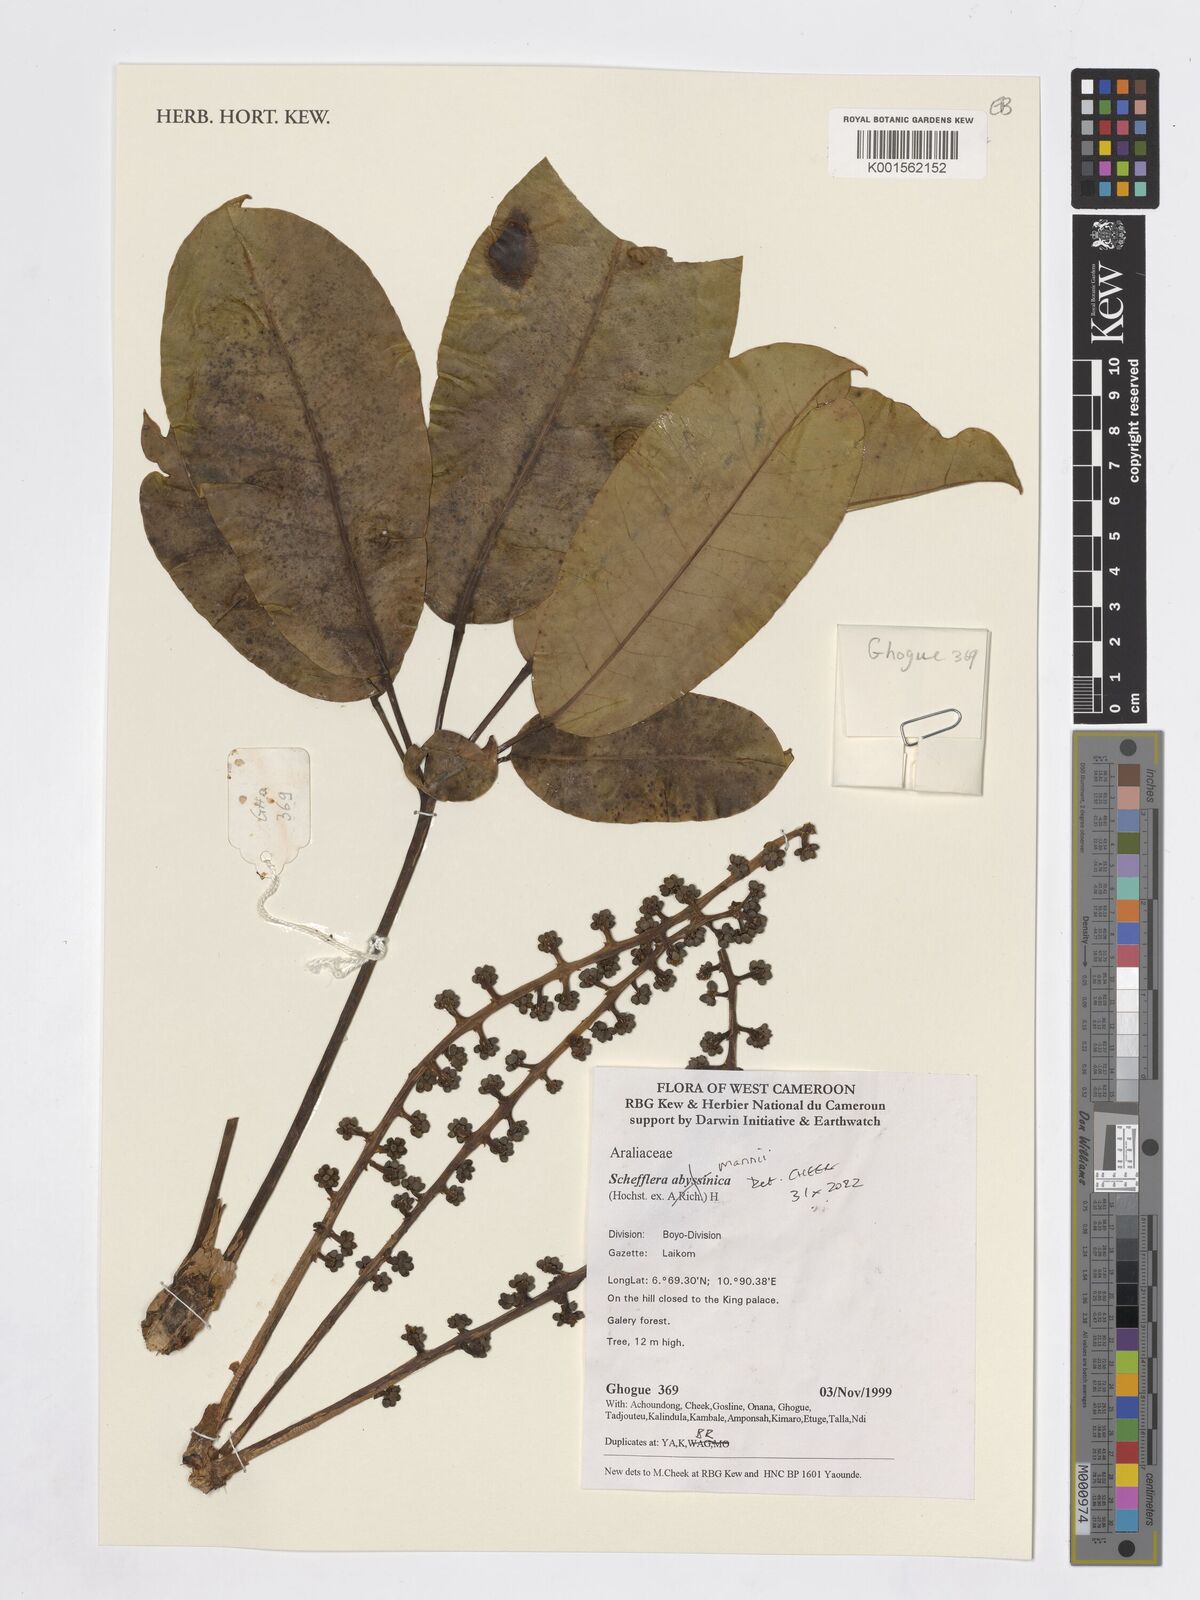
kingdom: Plantae
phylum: Tracheophyta
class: Magnoliopsida
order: Apiales
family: Araliaceae
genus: Astropanax
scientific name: Astropanax mannii
